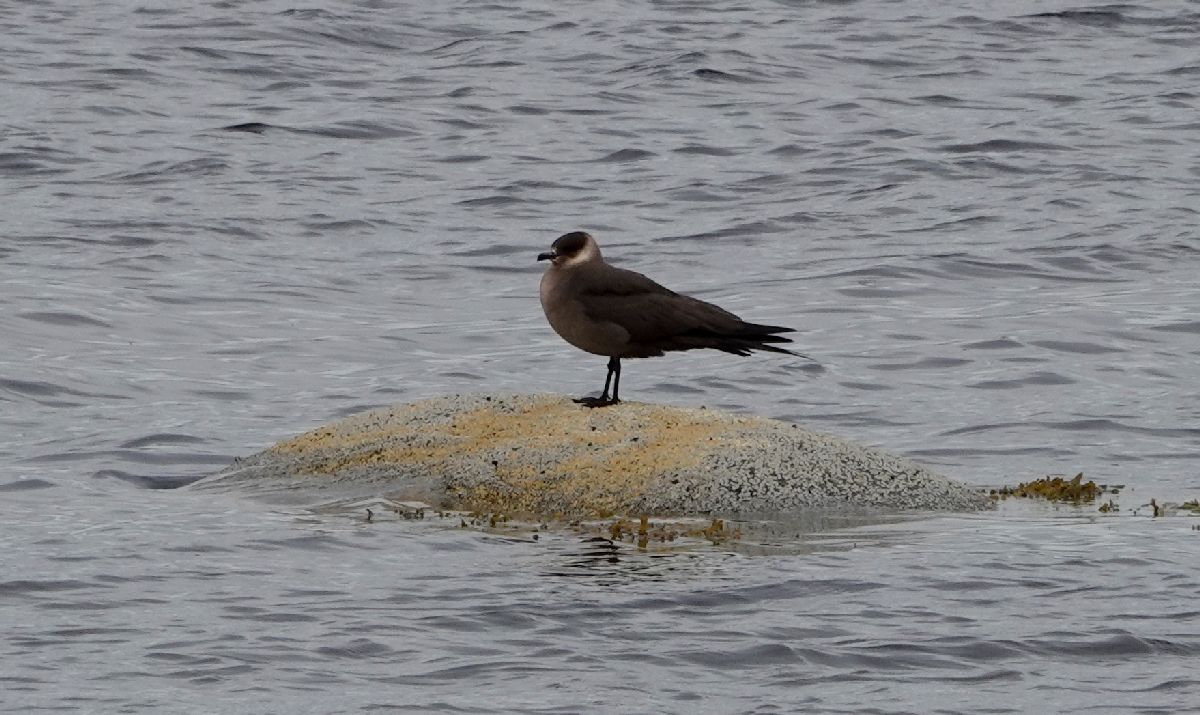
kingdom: Animalia
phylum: Chordata
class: Aves
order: Charadriiformes
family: Stercorariidae
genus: Stercorarius
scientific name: Stercorarius parasiticus
